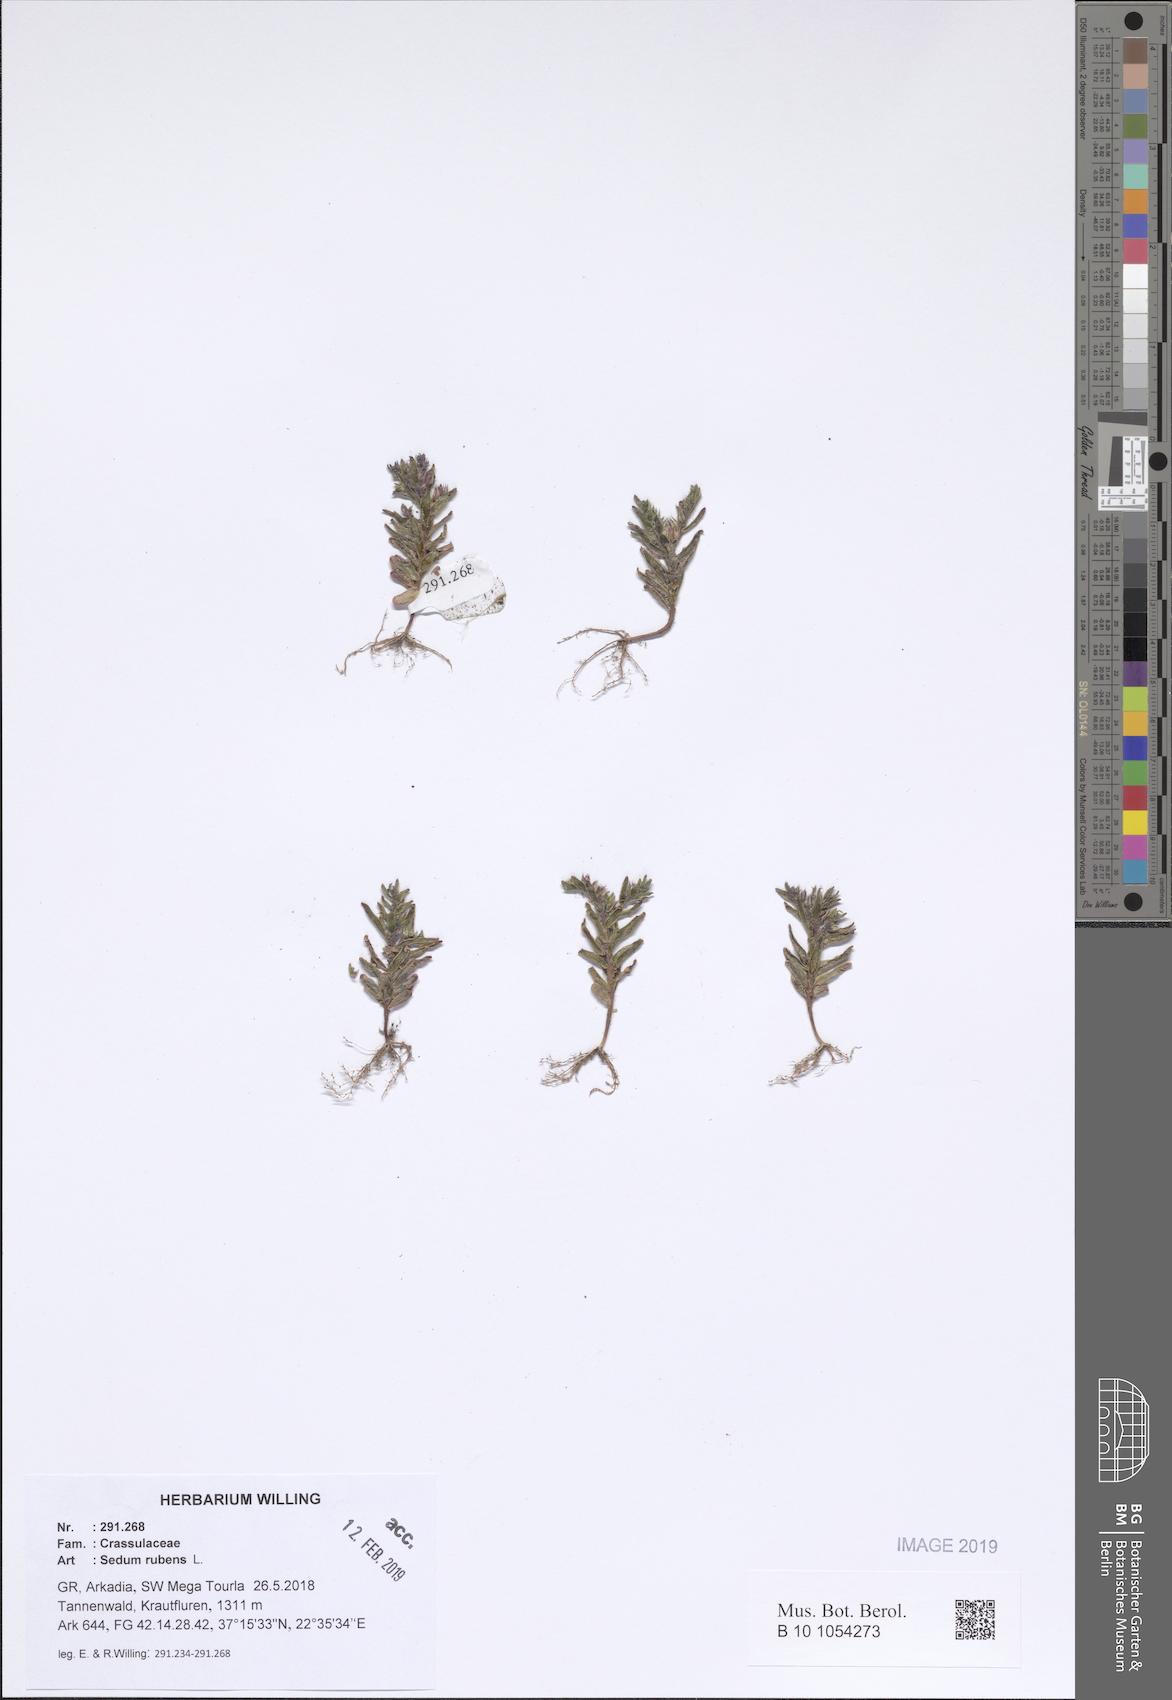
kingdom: Plantae
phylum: Tracheophyta
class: Magnoliopsida
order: Saxifragales
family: Crassulaceae
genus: Sedum
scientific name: Sedum rubens
